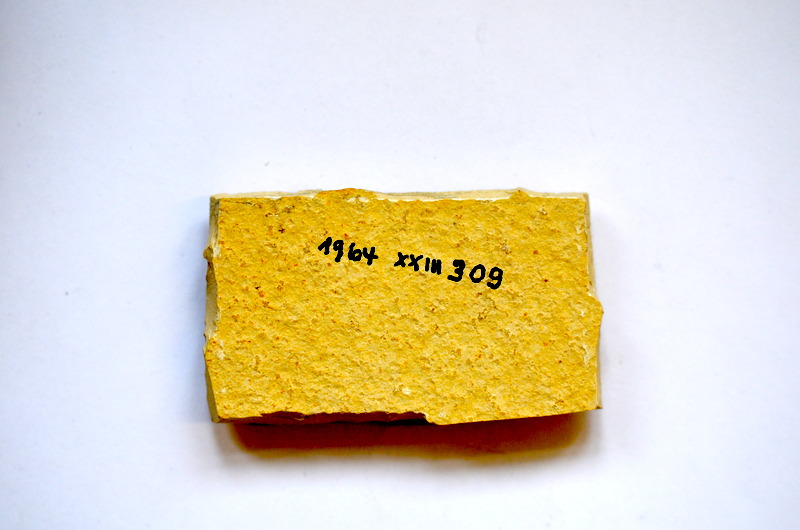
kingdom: Animalia
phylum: Chordata
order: Salmoniformes
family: Orthogonikleithridae
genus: Leptolepides
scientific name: Leptolepides
